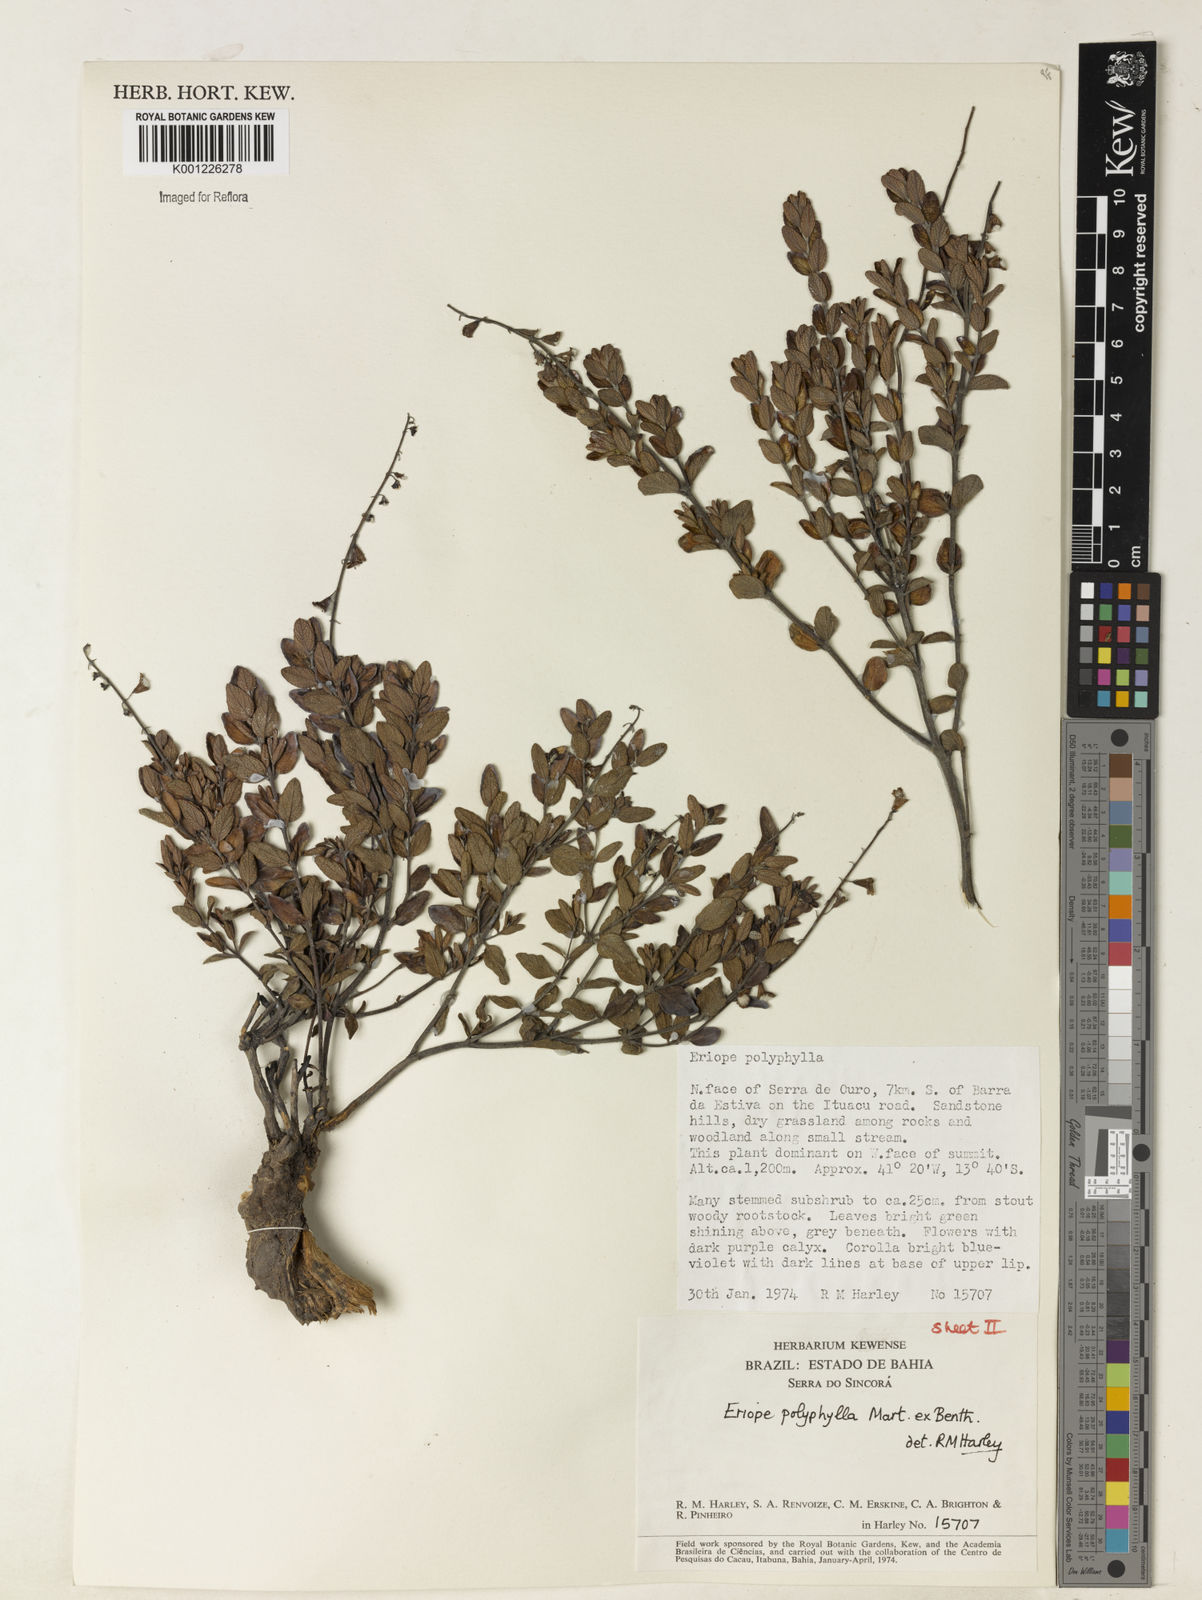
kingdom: Plantae
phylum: Tracheophyta
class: Magnoliopsida
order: Lamiales
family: Lamiaceae
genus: Eriope
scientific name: Eriope polyphylla
